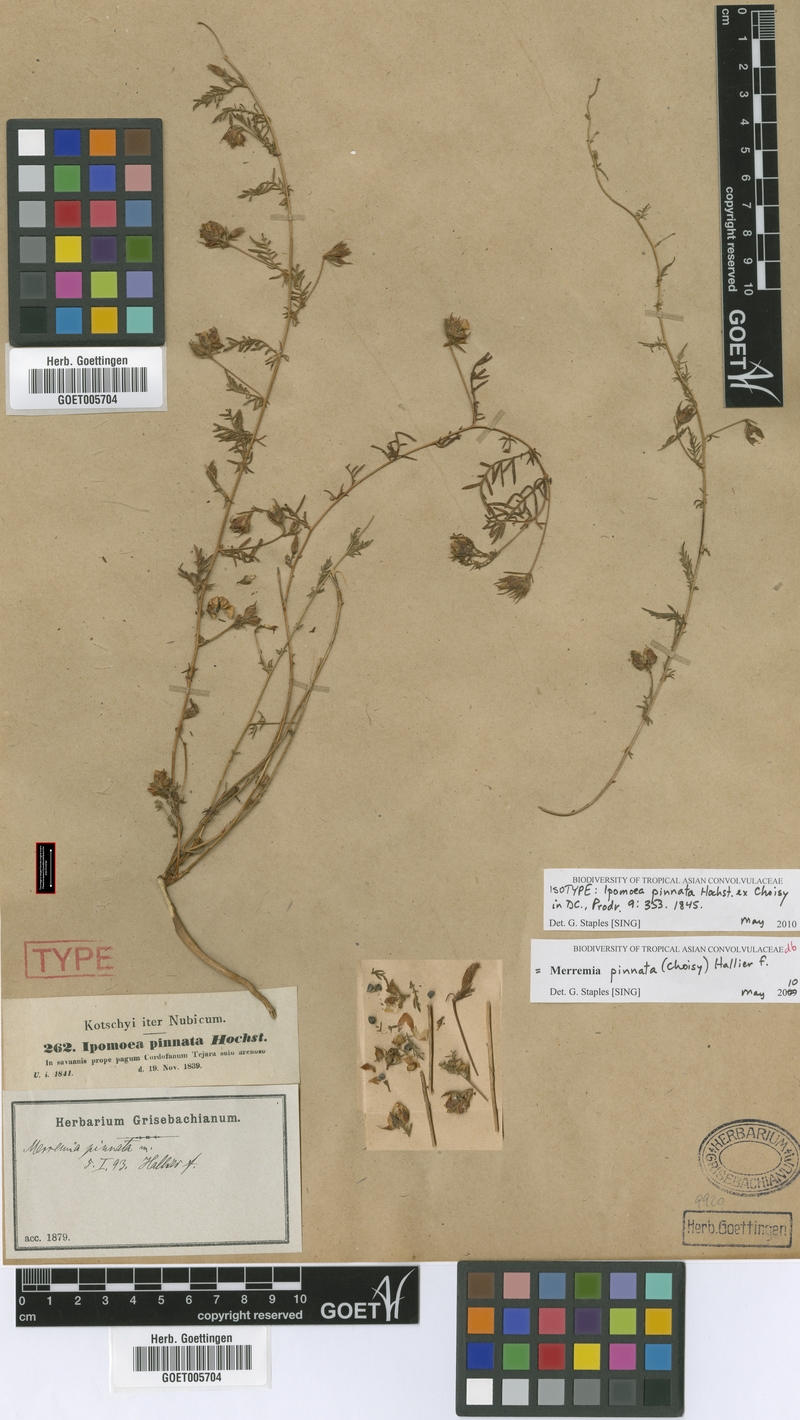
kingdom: Plantae
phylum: Tracheophyta
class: Magnoliopsida
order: Solanales
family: Convolvulaceae
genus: Xenostegia
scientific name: Xenostegia pinnata
